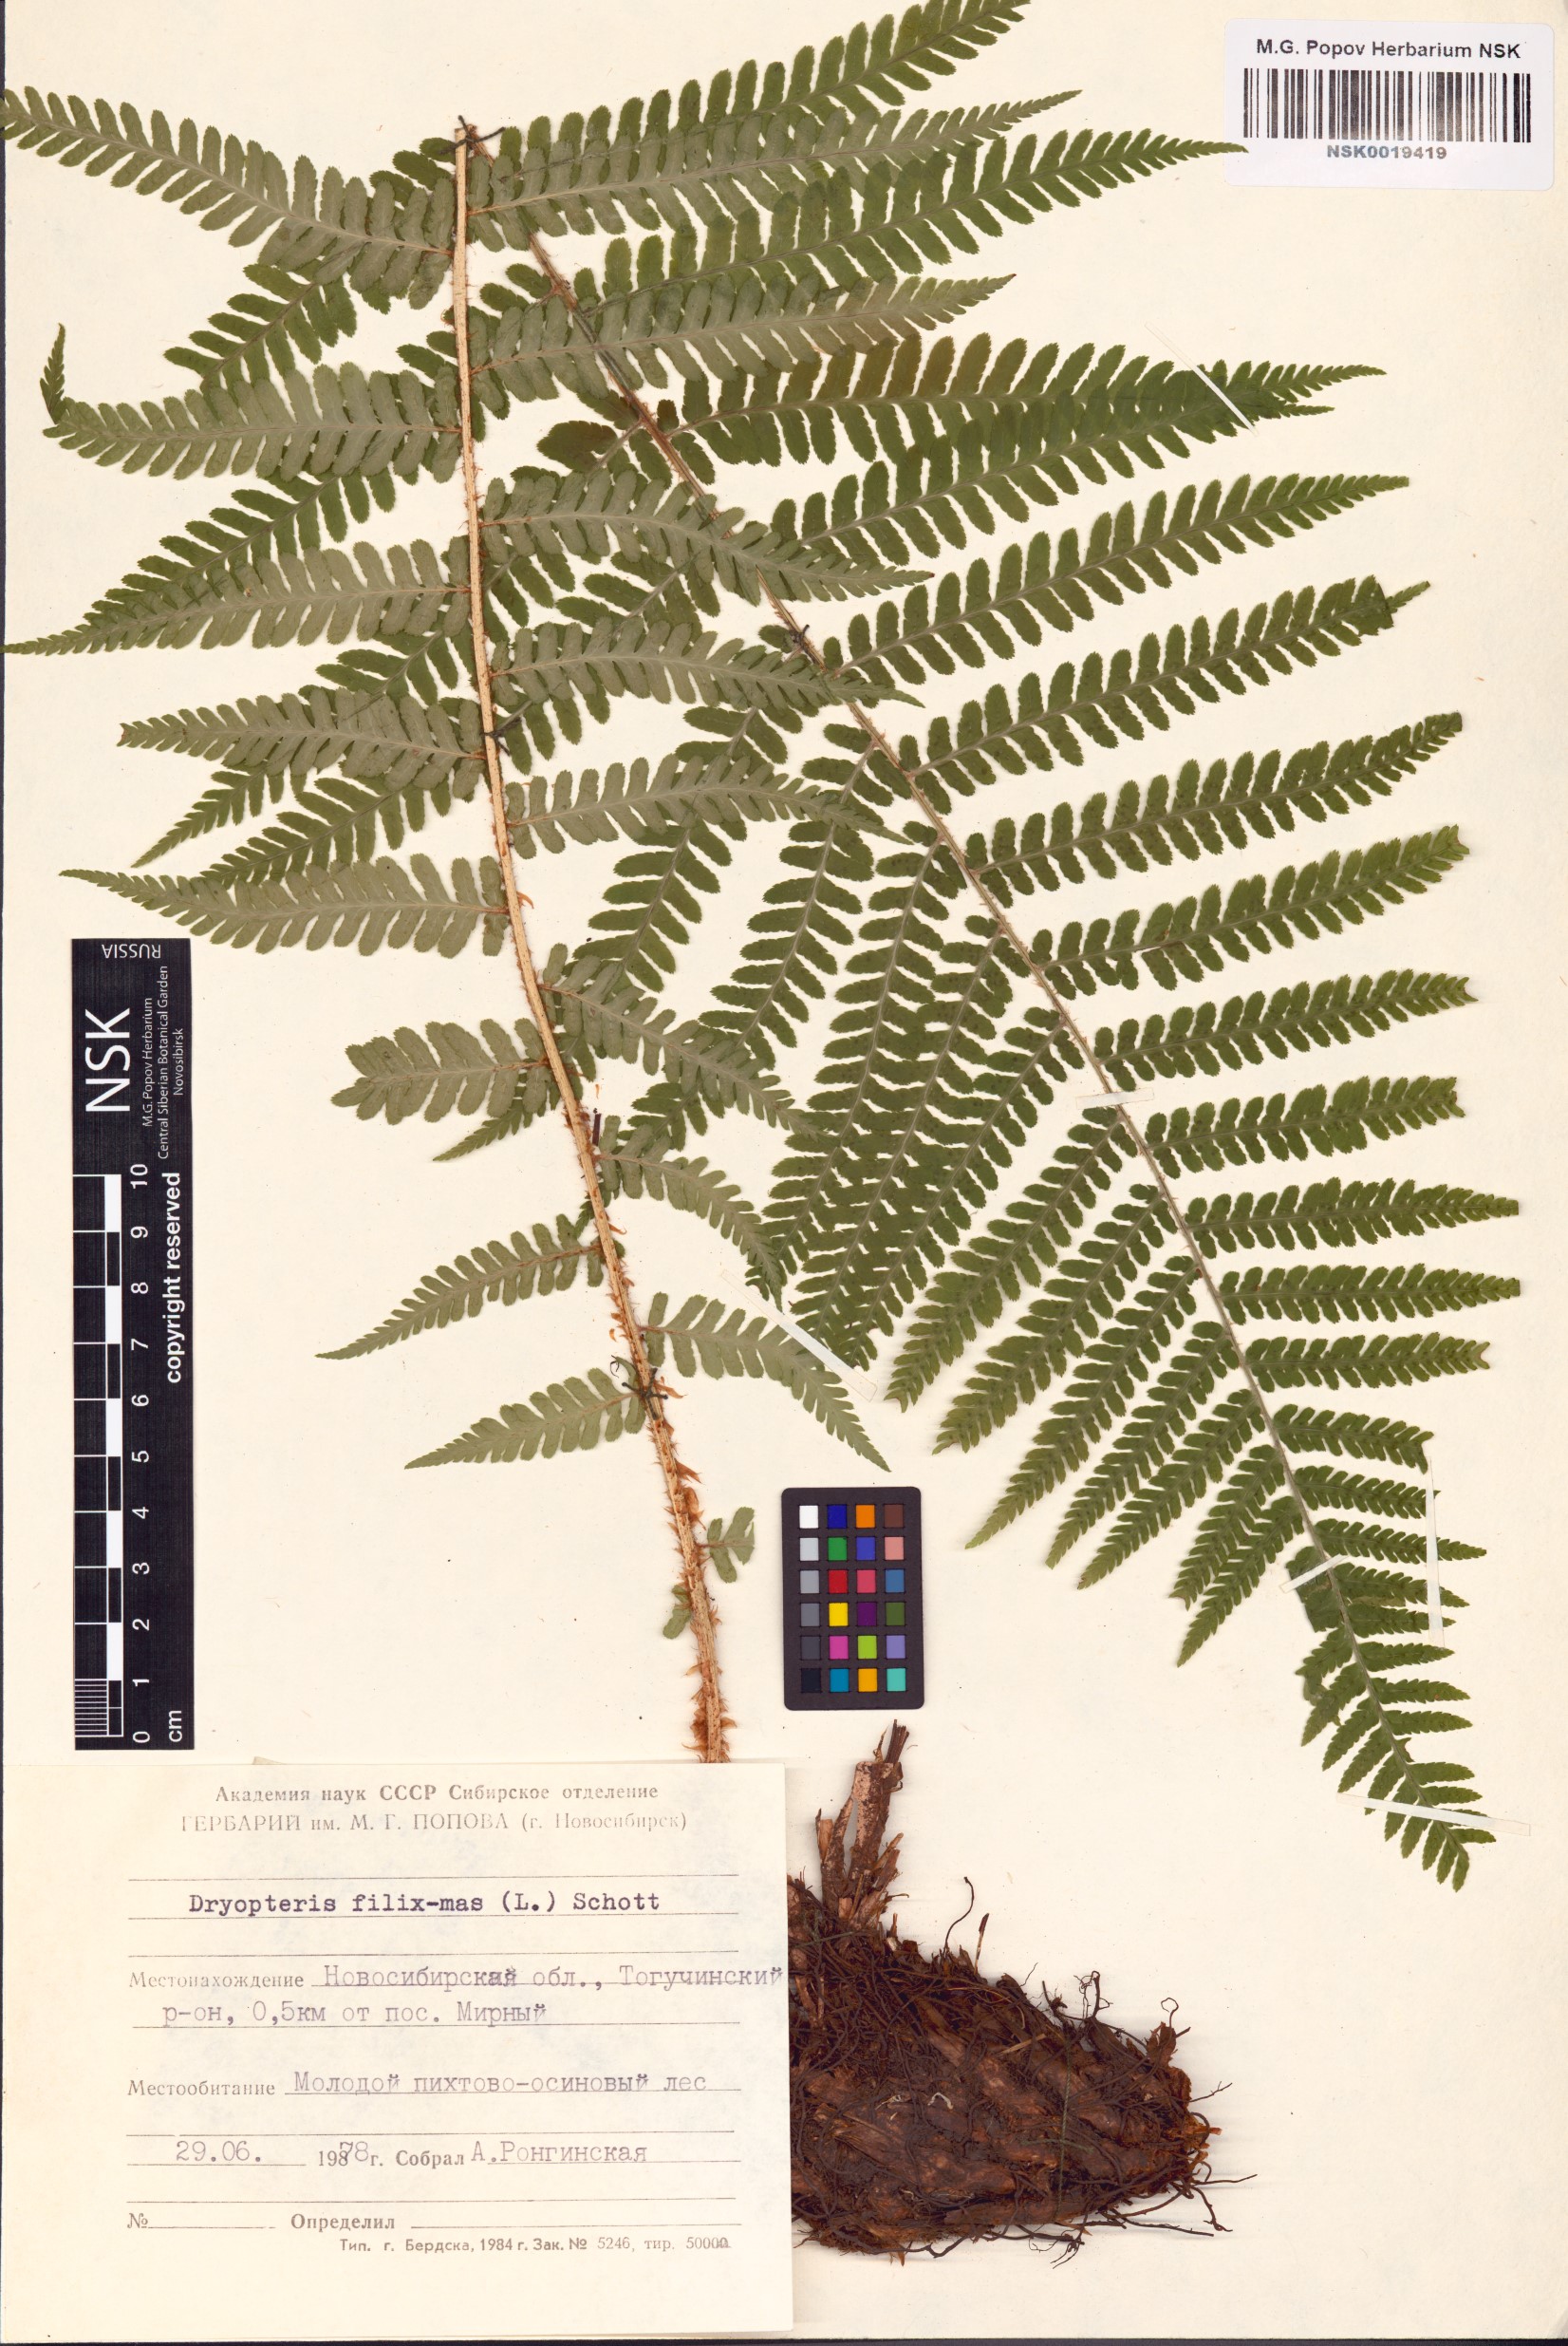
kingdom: Plantae
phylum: Tracheophyta
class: Polypodiopsida
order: Polypodiales
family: Dryopteridaceae
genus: Dryopteris
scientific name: Dryopteris filix-mas
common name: Male fern
